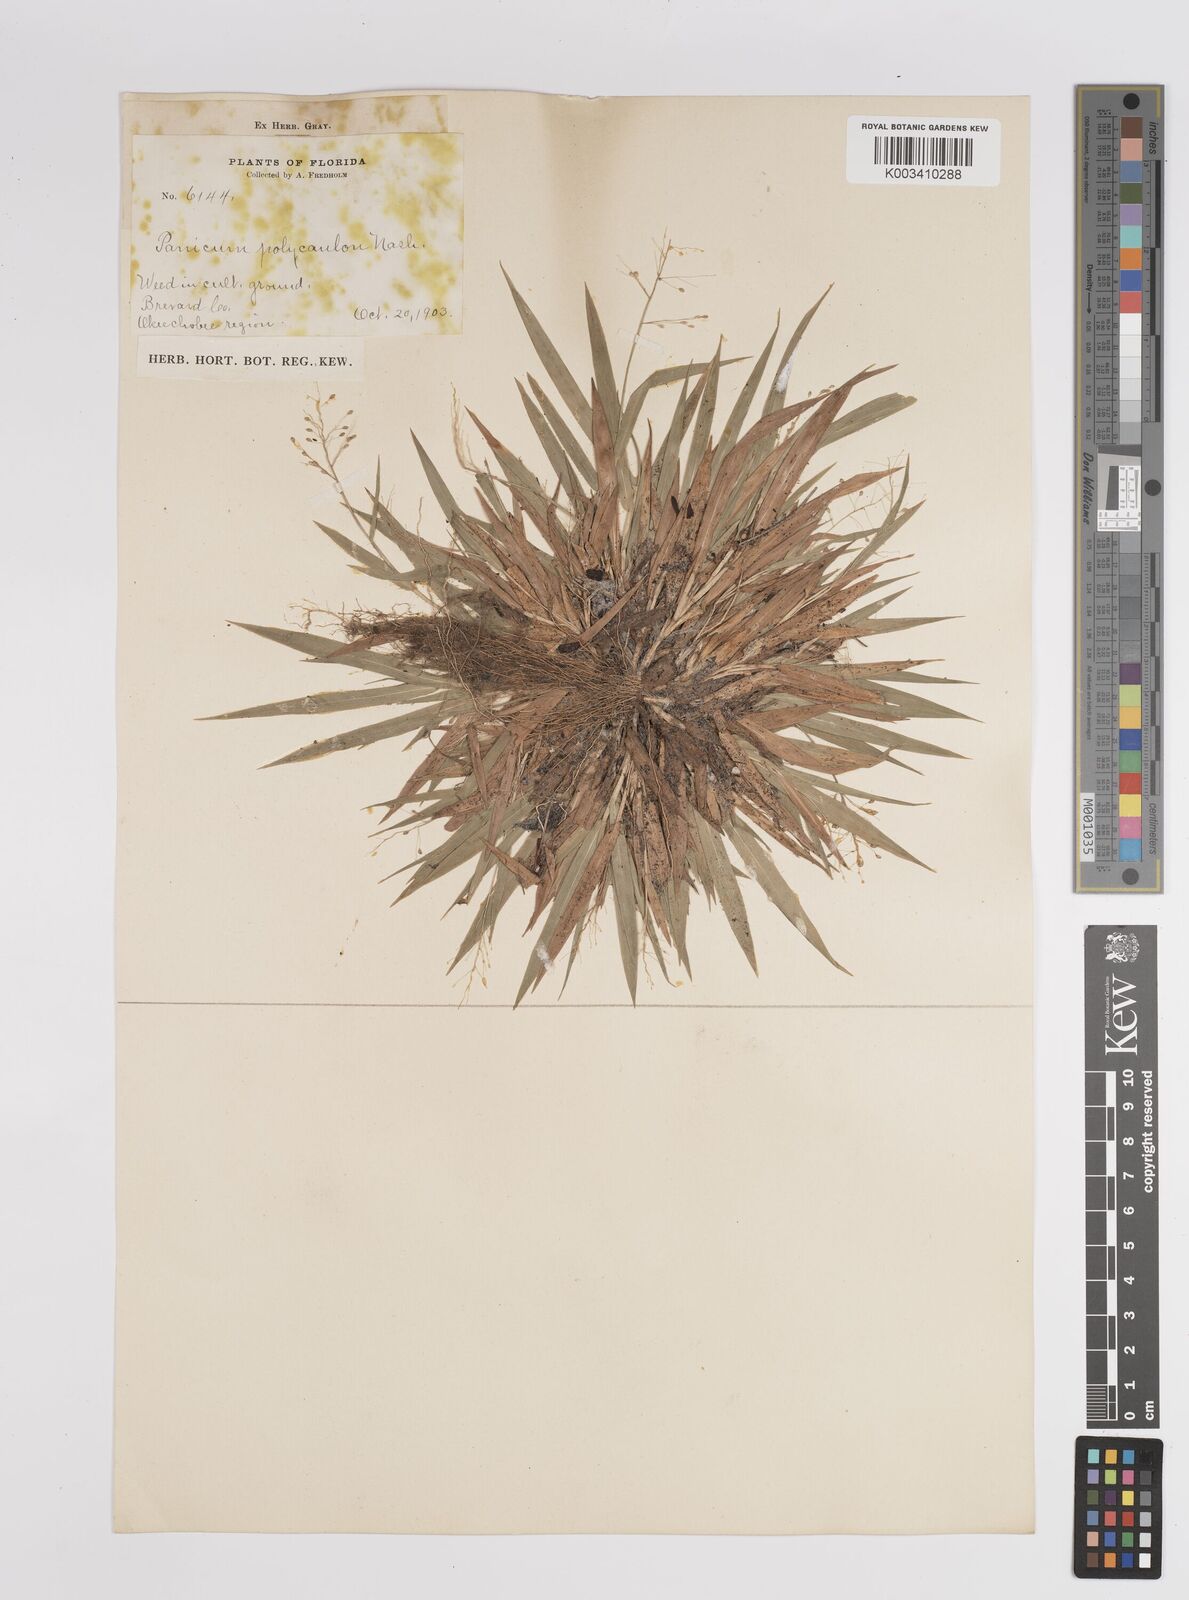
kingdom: Plantae
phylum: Tracheophyta
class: Liliopsida
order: Poales
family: Poaceae
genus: Dichanthelium
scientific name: Dichanthelium strigosum
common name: Cushion-tuft panic grass
